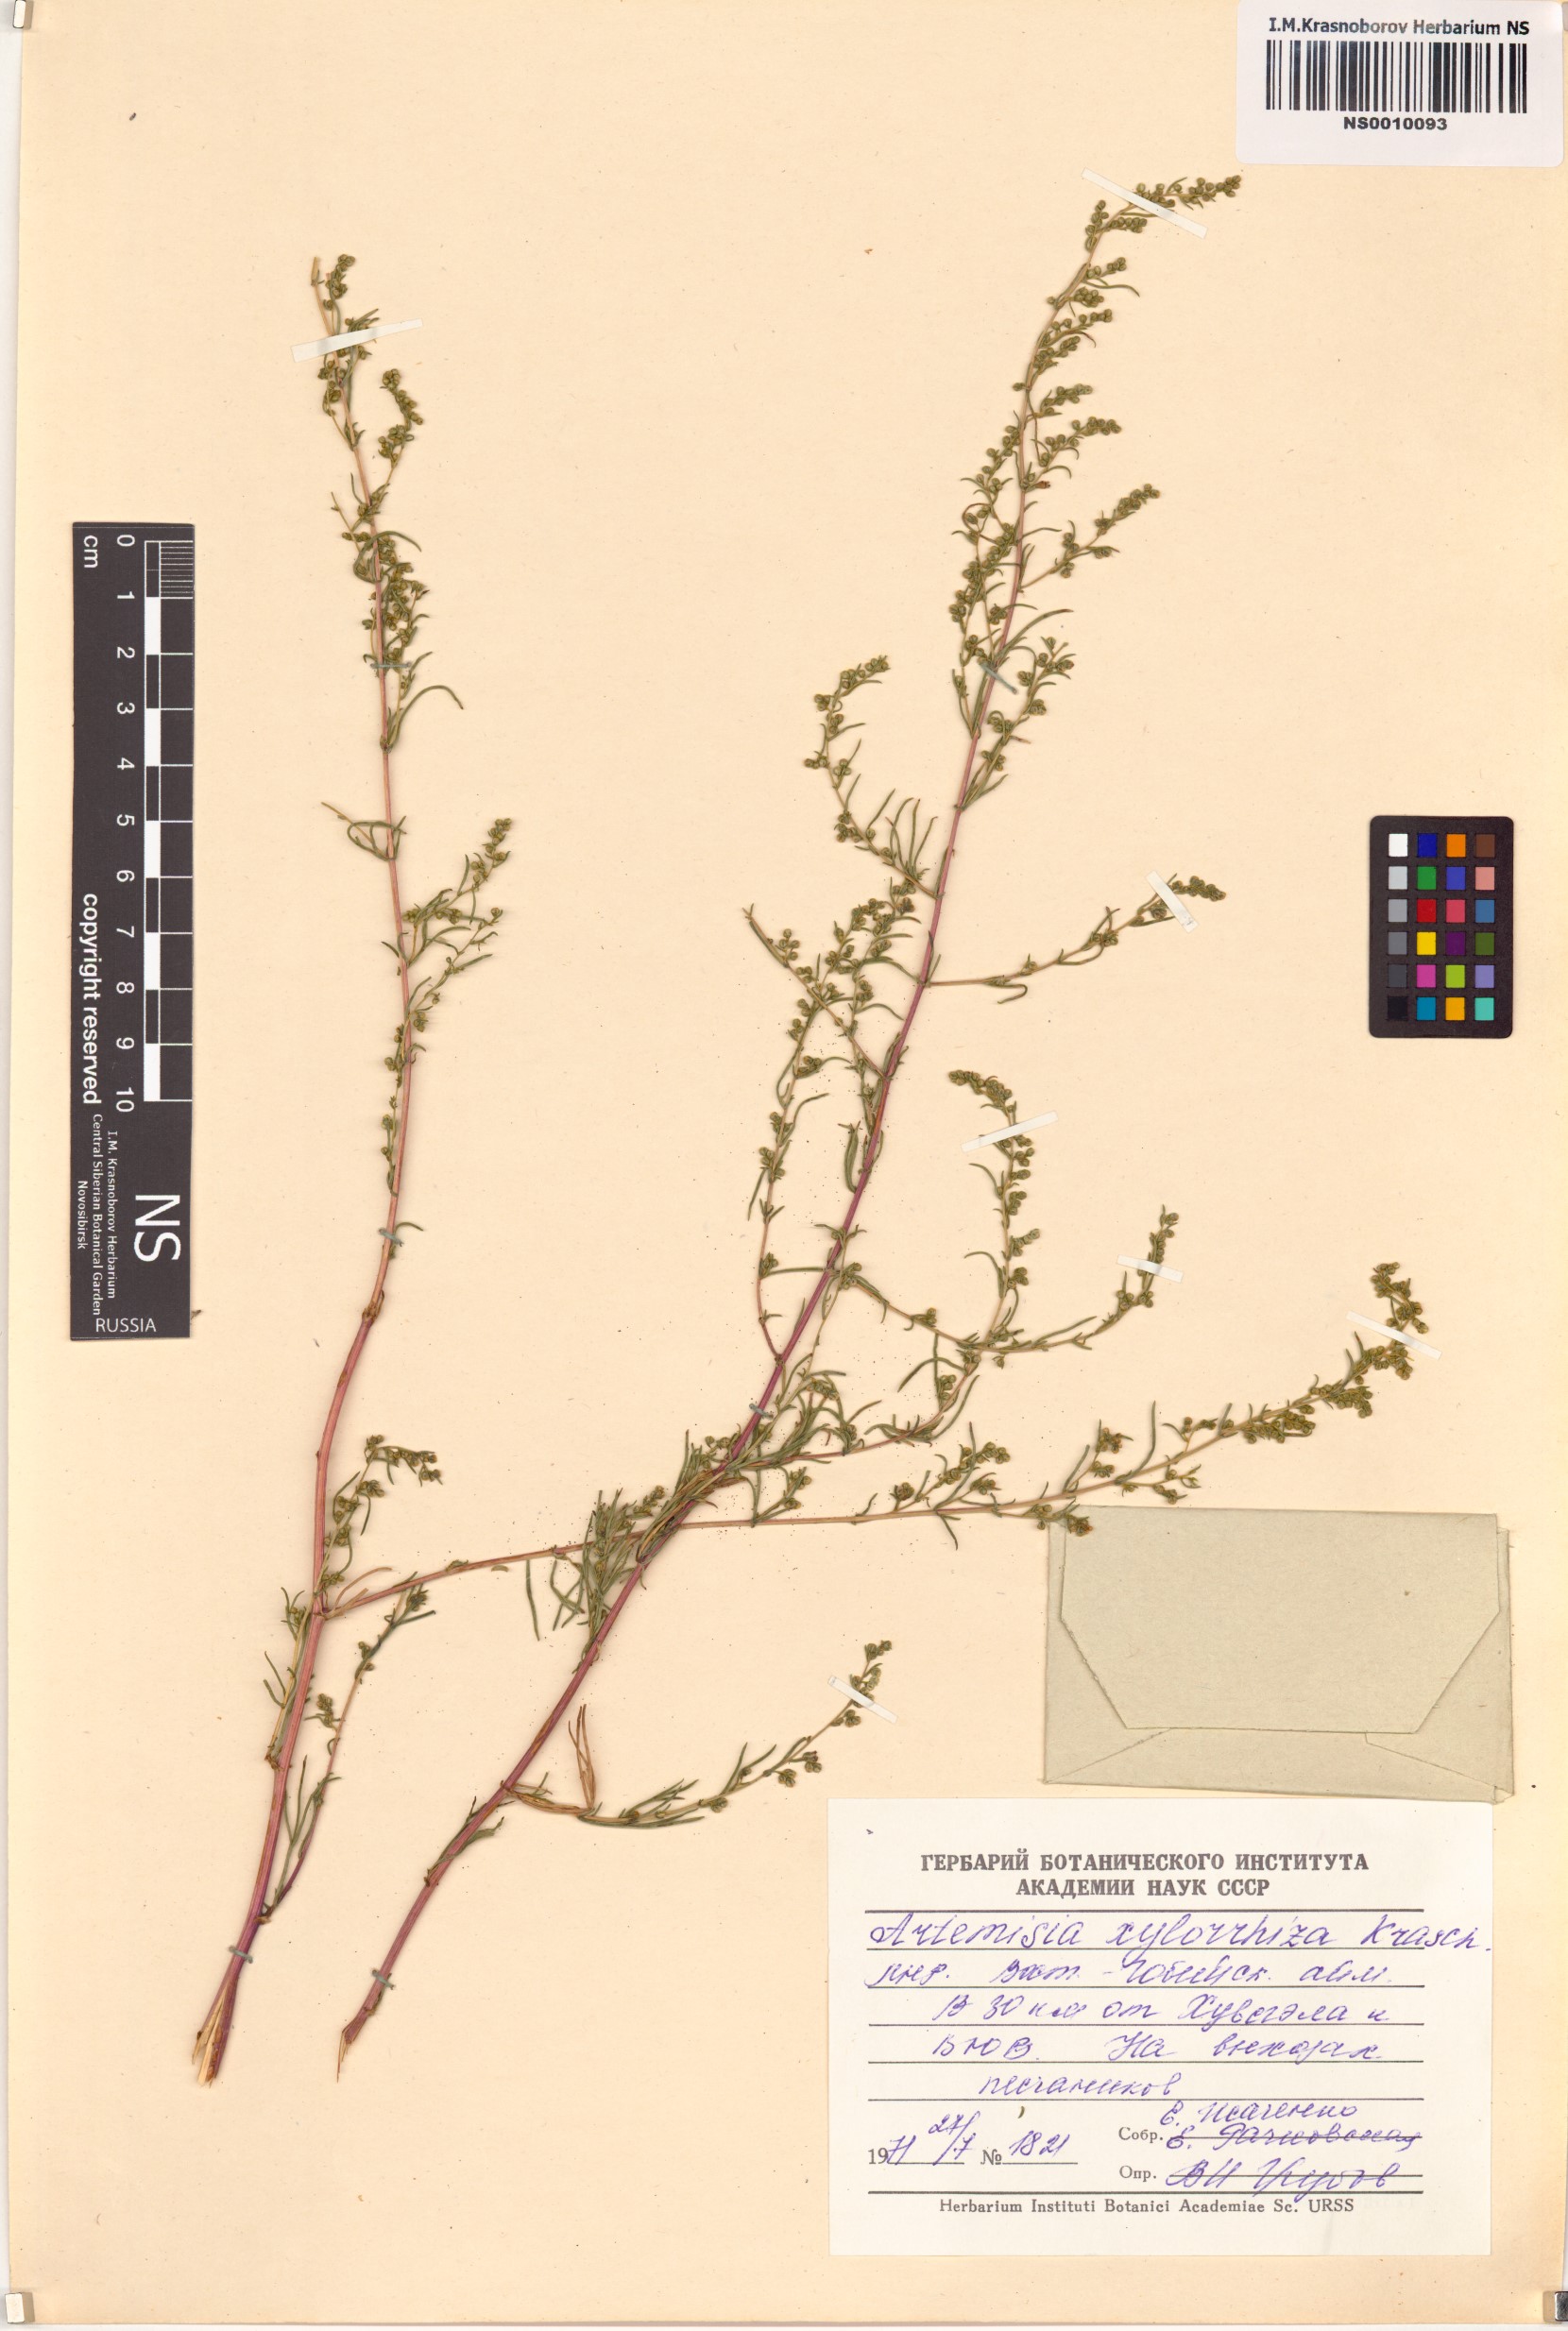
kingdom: Plantae
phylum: Tracheophyta
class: Magnoliopsida
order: Asterales
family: Asteraceae
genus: Artemisia
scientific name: Artemisia klementzae
